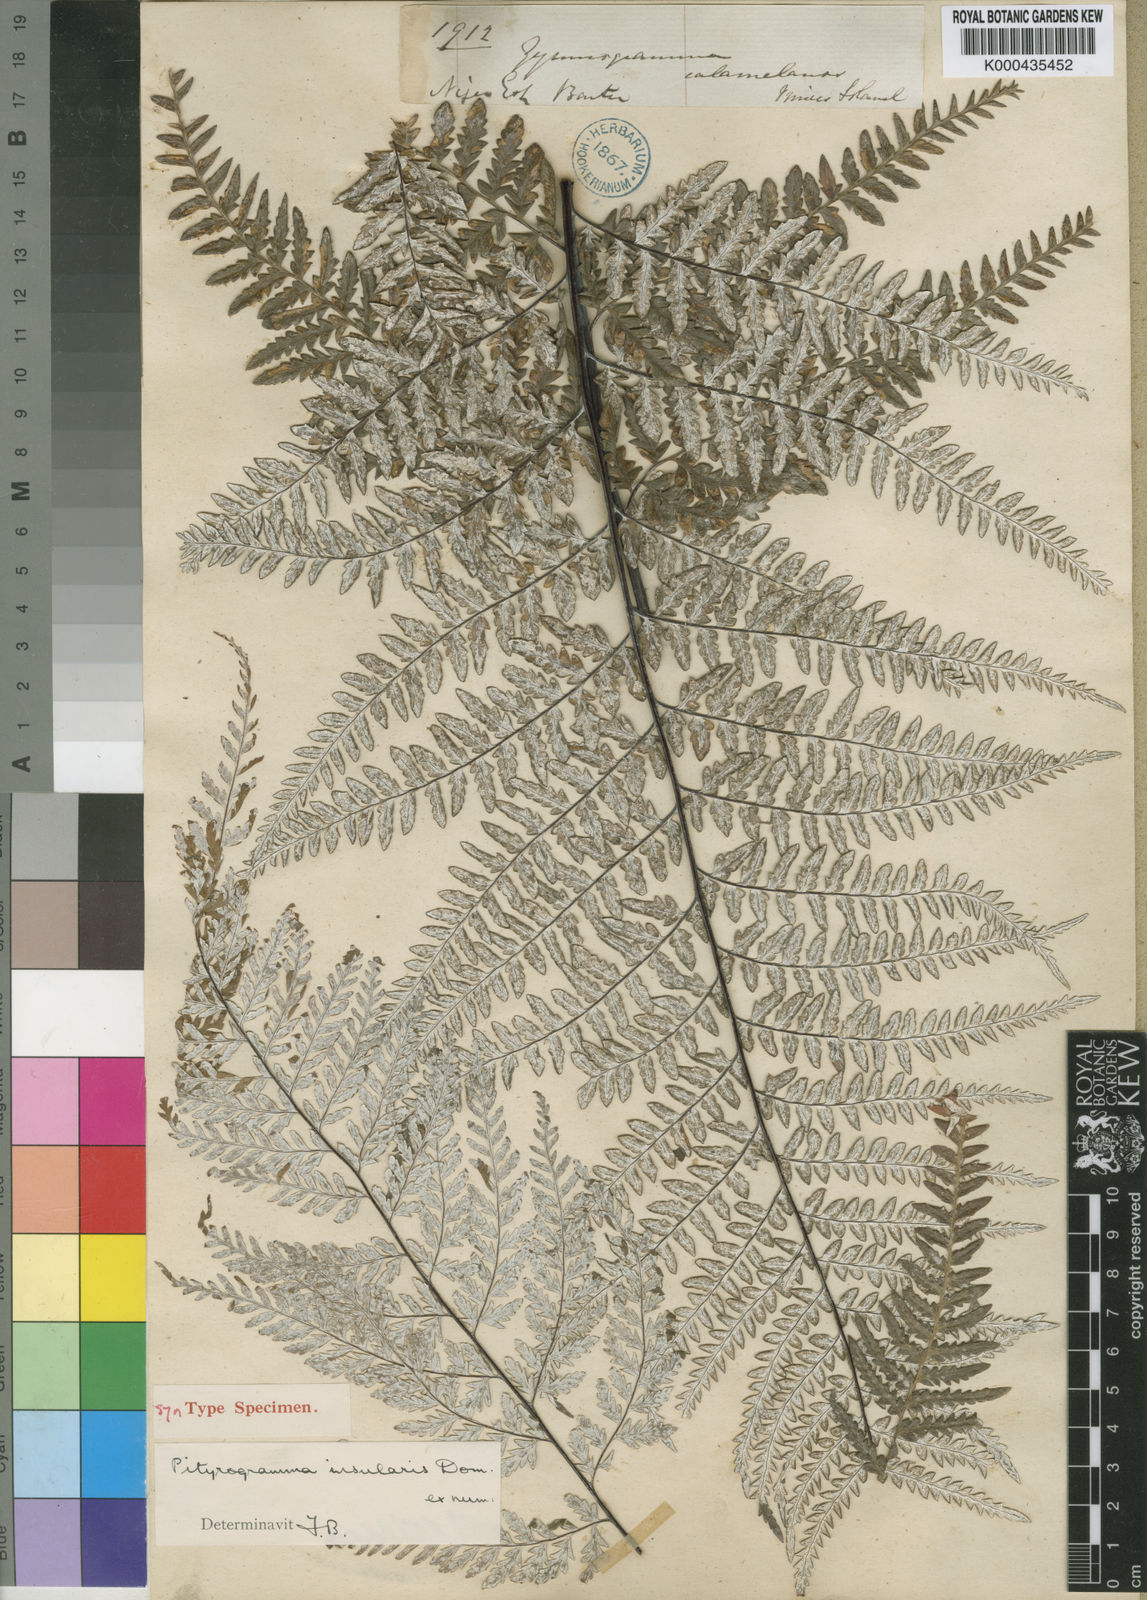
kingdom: Plantae
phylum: Tracheophyta
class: Polypodiopsida
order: Polypodiales
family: Pteridaceae
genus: Pityrogramma
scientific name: Pityrogramma calomelanos
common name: Dixie silverback fern
